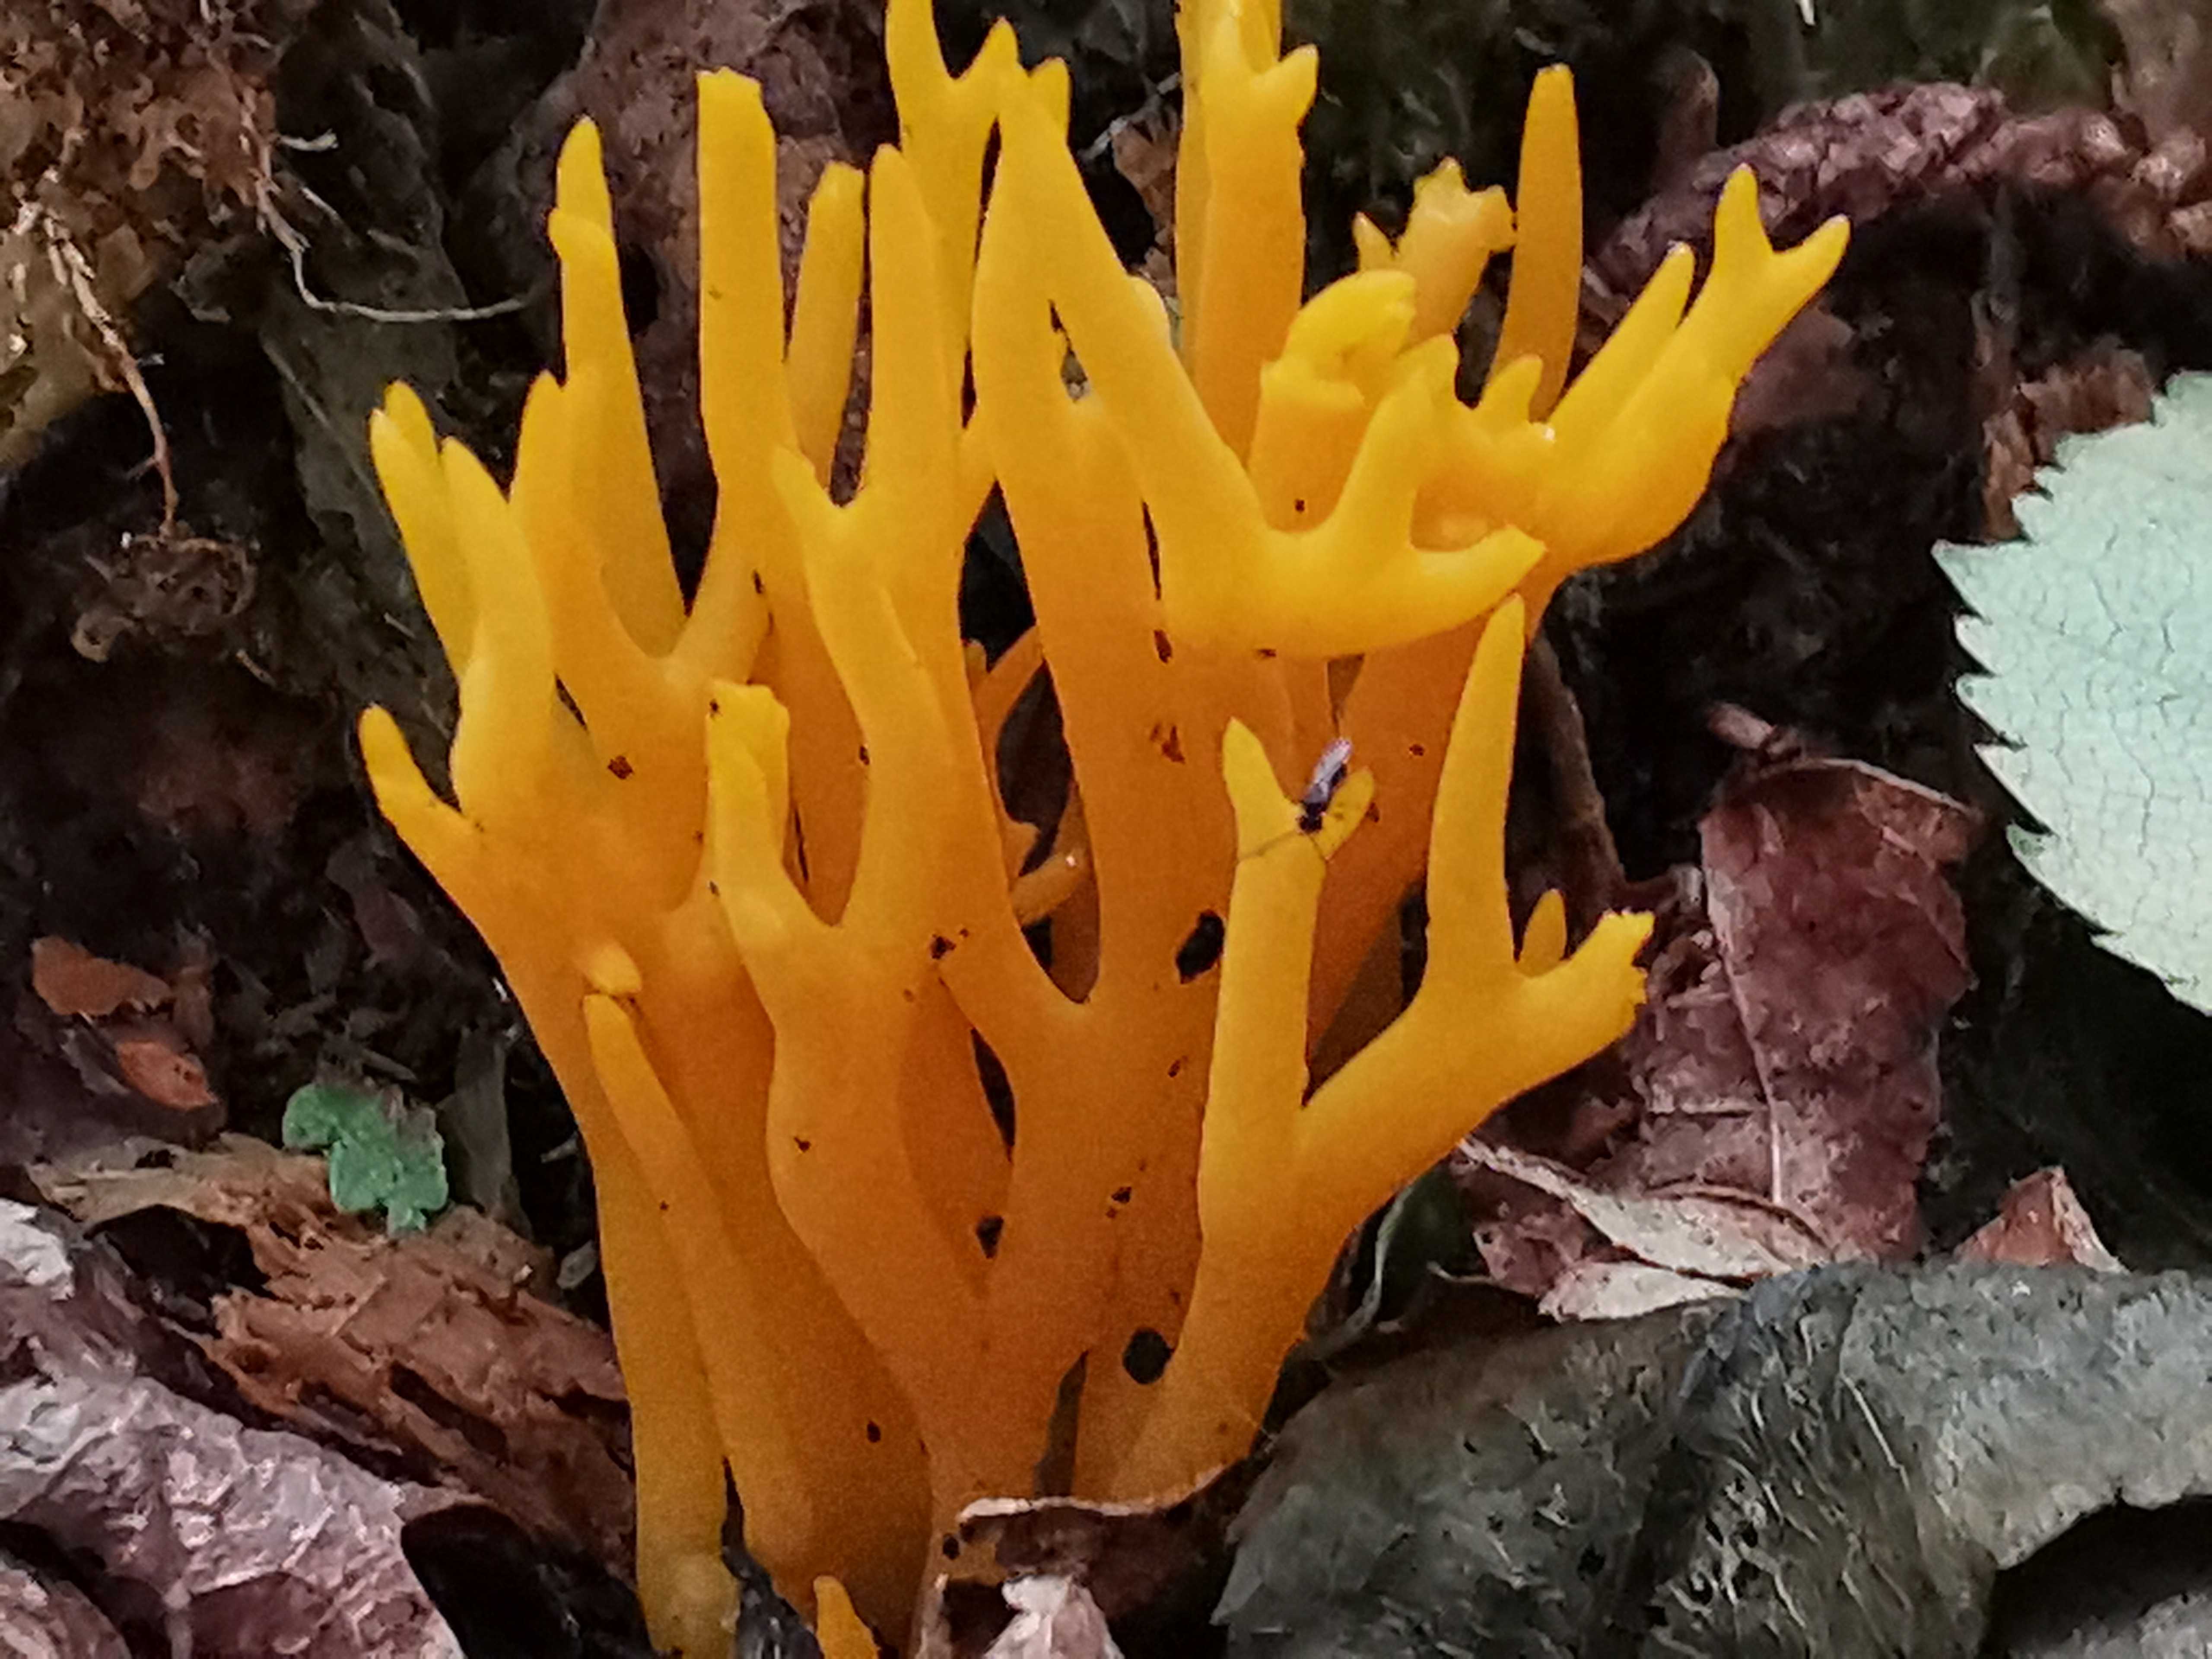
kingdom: Fungi
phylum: Basidiomycota
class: Dacrymycetes
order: Dacrymycetales
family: Dacrymycetaceae
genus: Calocera
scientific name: Calocera viscosa
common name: almindelig guldgaffel
